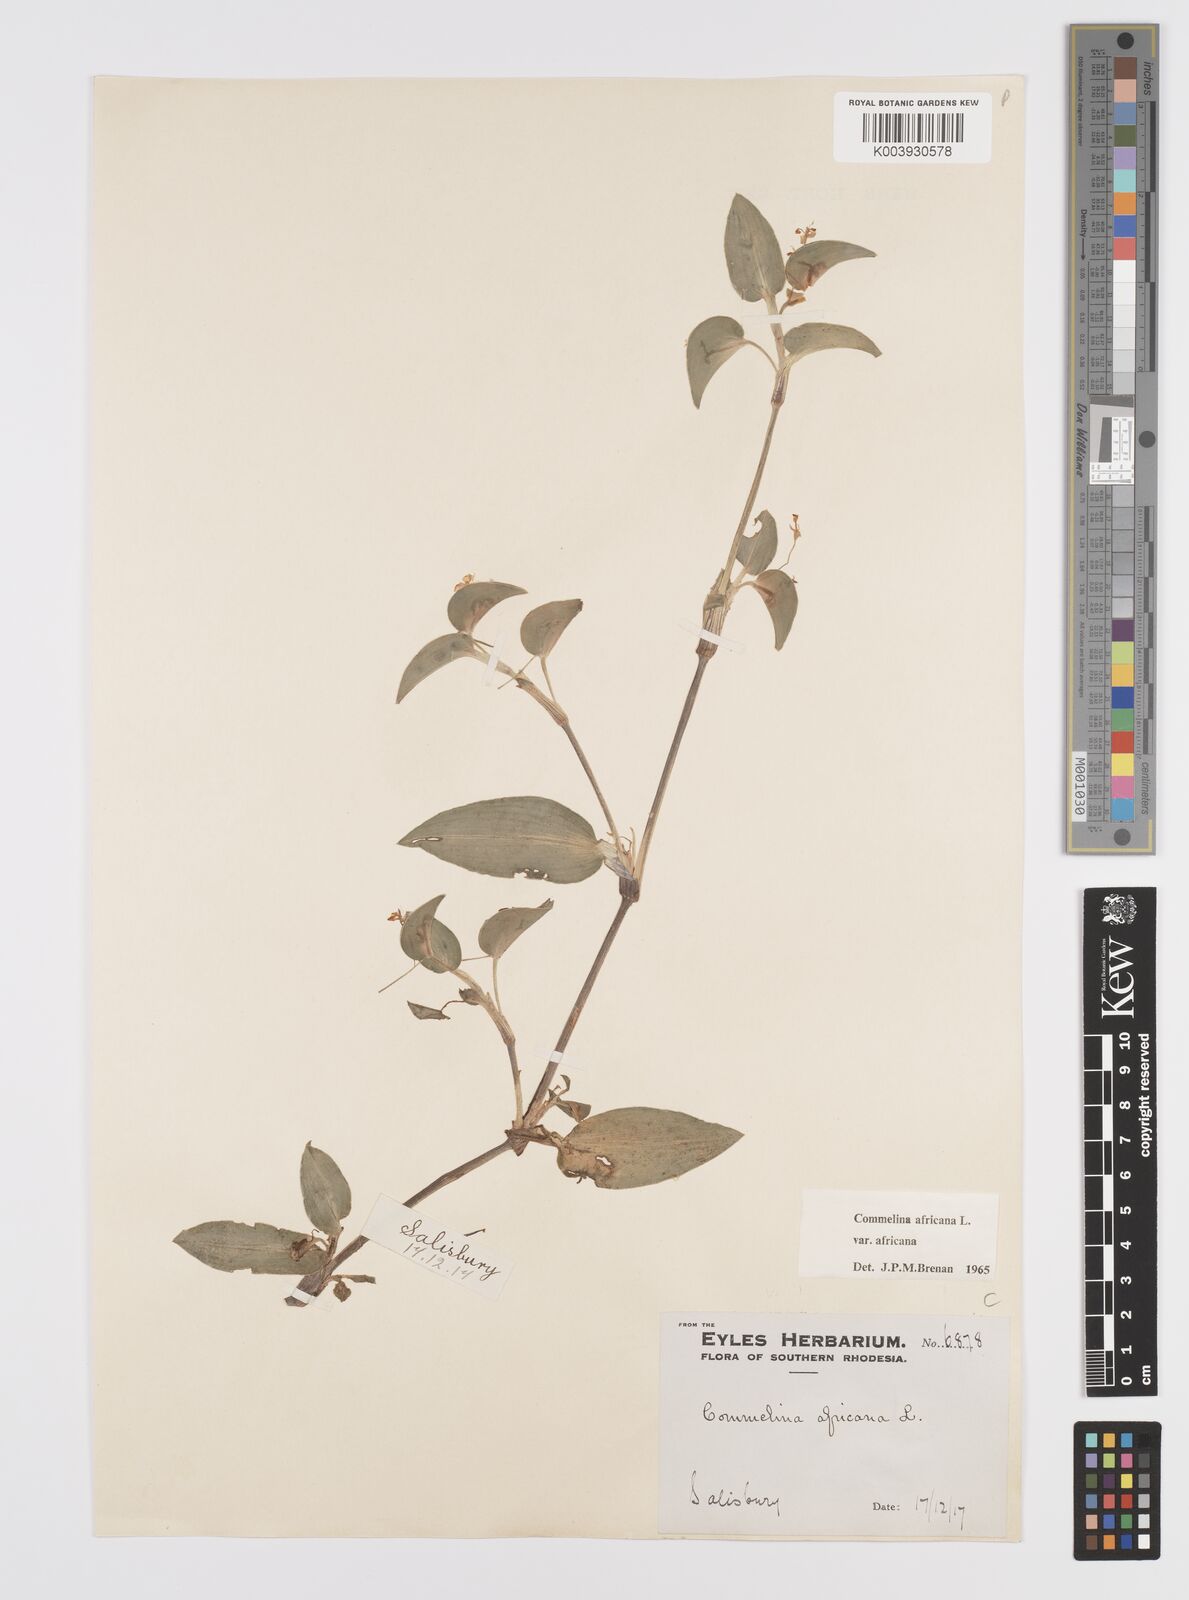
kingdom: Plantae
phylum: Tracheophyta
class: Liliopsida
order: Commelinales
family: Commelinaceae
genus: Commelina
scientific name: Commelina africana
